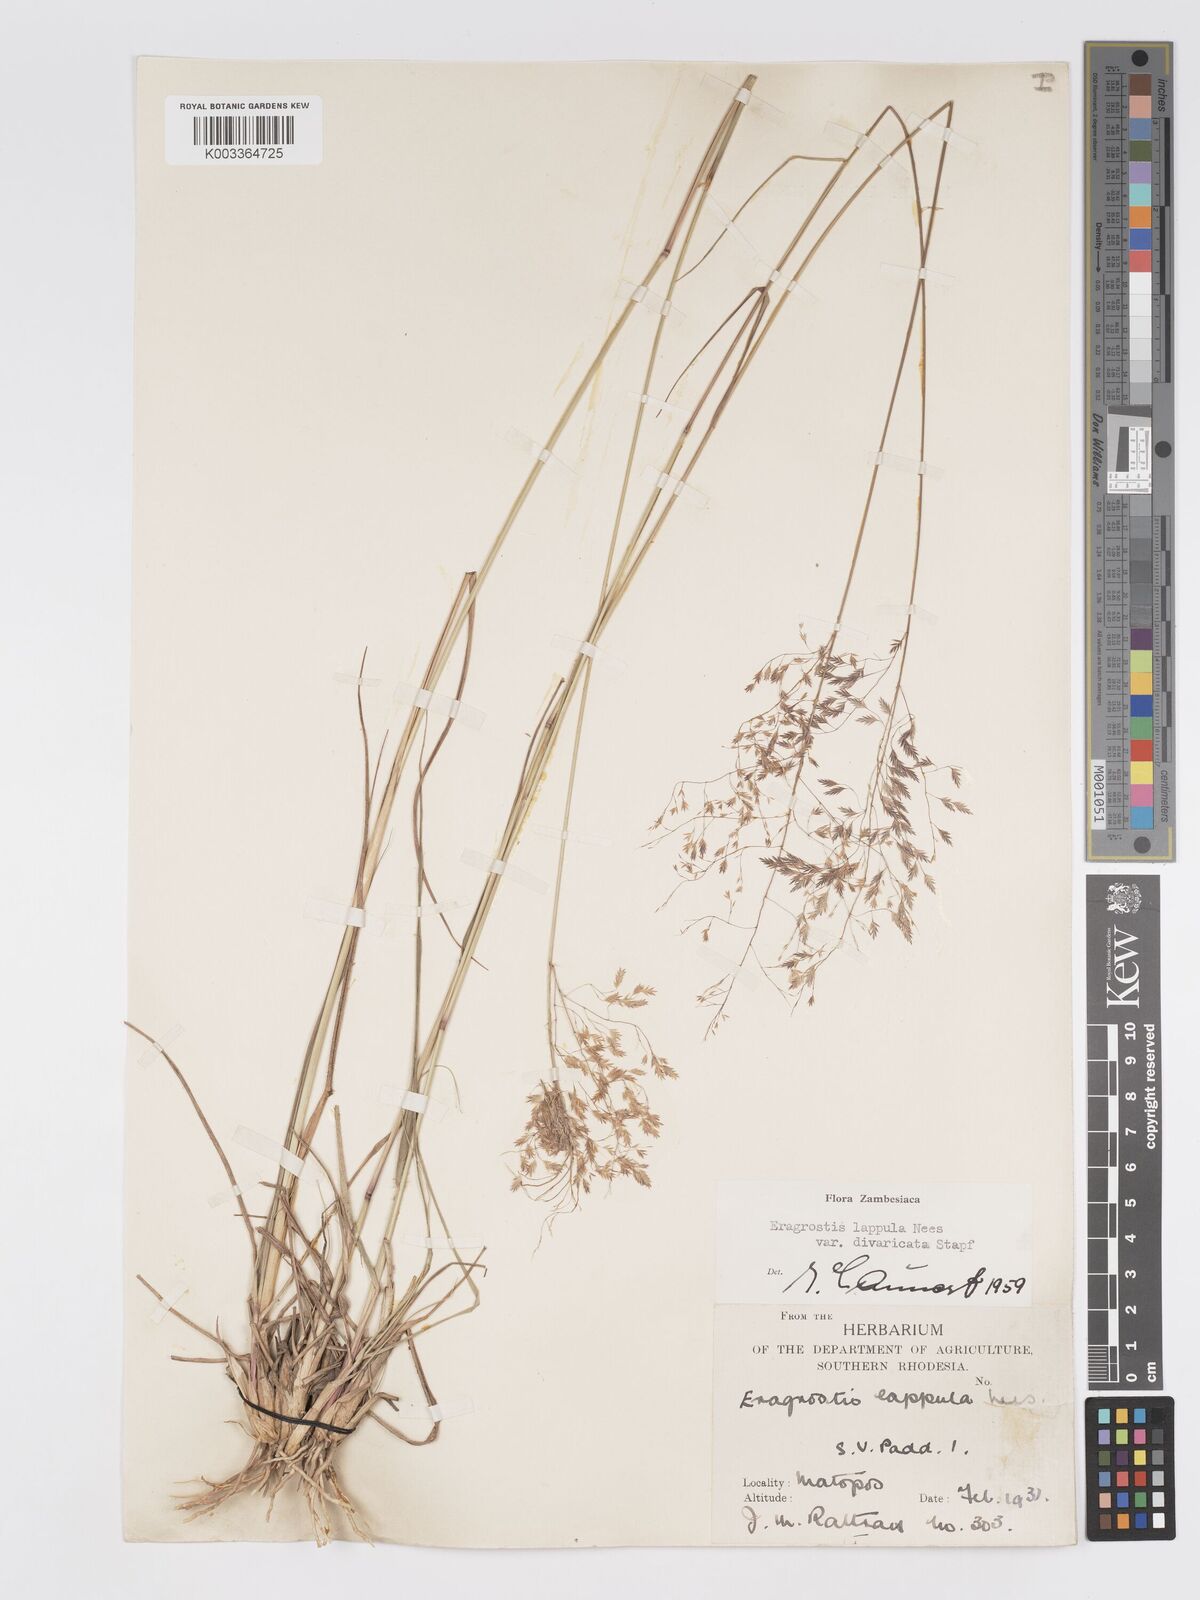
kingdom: Plantae
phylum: Tracheophyta
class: Liliopsida
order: Poales
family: Poaceae
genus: Eragrostis
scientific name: Eragrostis lappula
